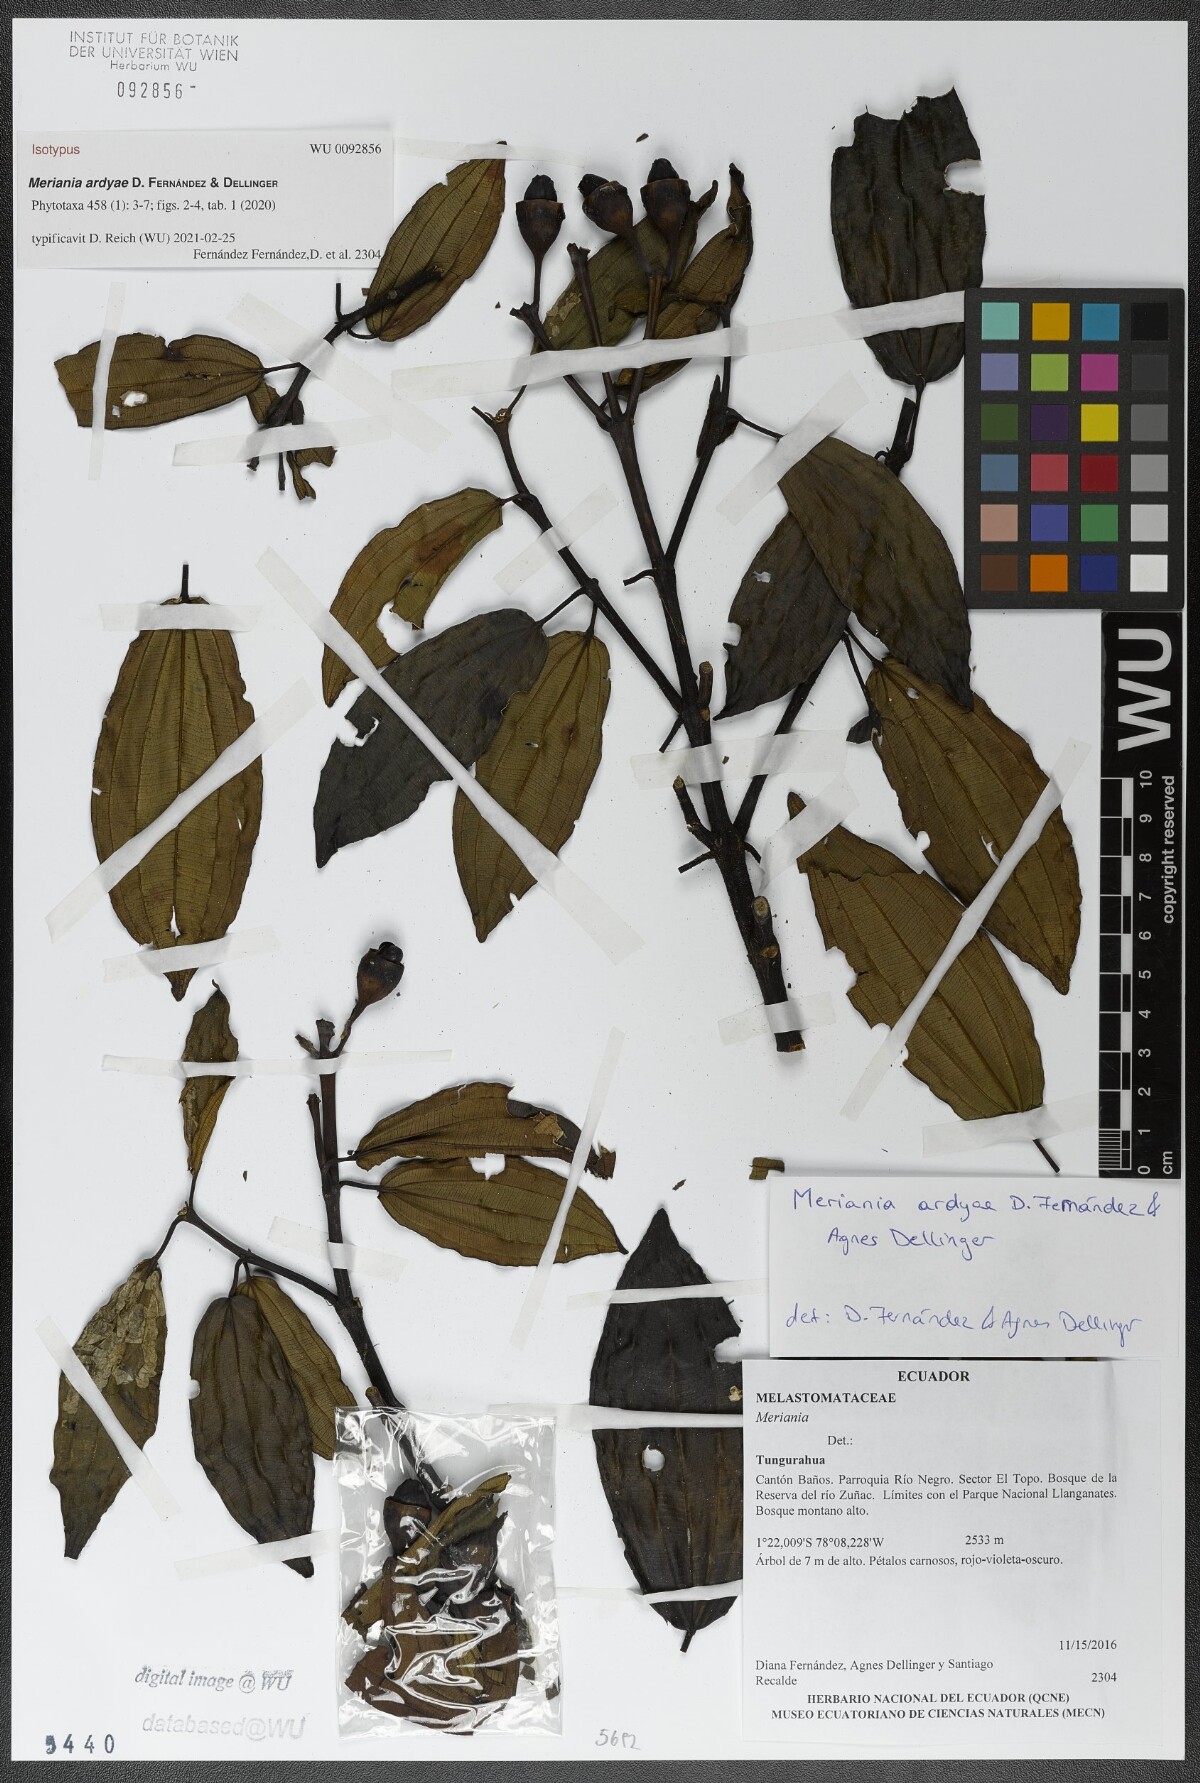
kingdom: Plantae
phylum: Tracheophyta
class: Magnoliopsida
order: Myrtales
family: Melastomataceae
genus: Meriania
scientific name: Meriania ardyae
